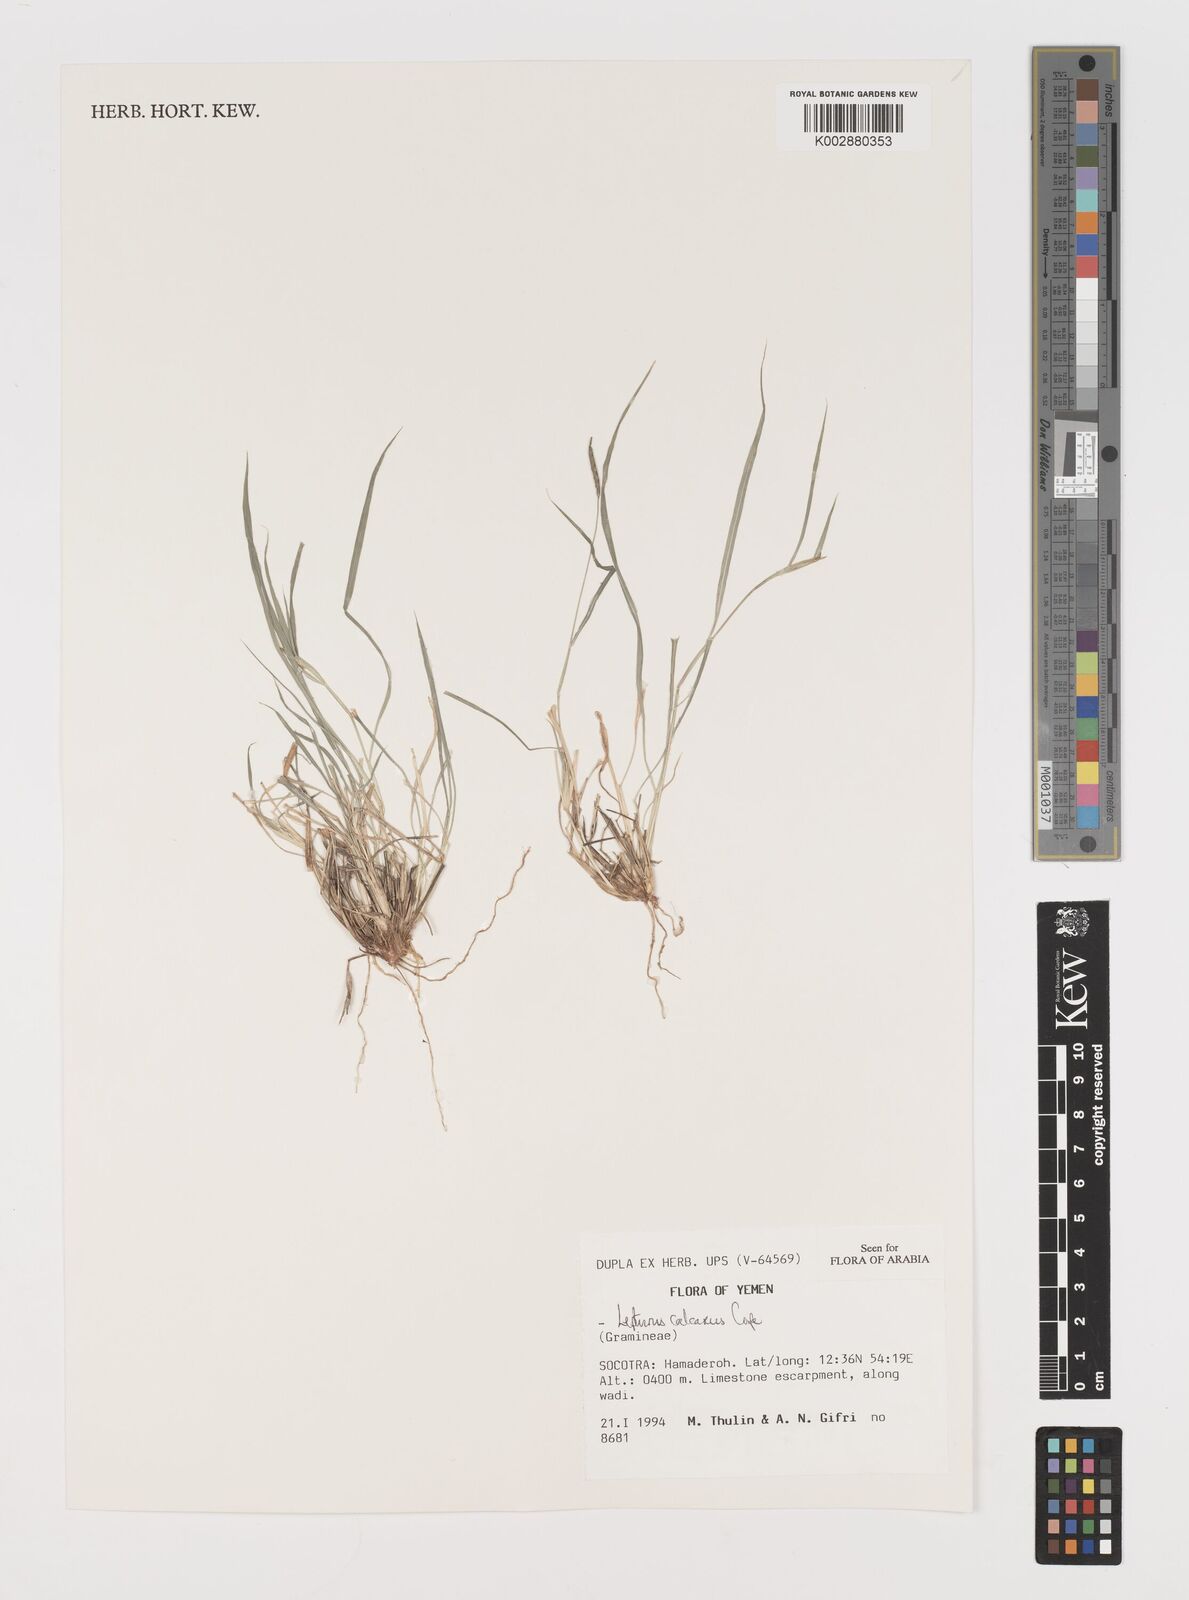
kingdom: Plantae
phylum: Tracheophyta
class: Liliopsida
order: Poales
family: Poaceae
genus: Lepturus
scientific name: Lepturus calcareus
